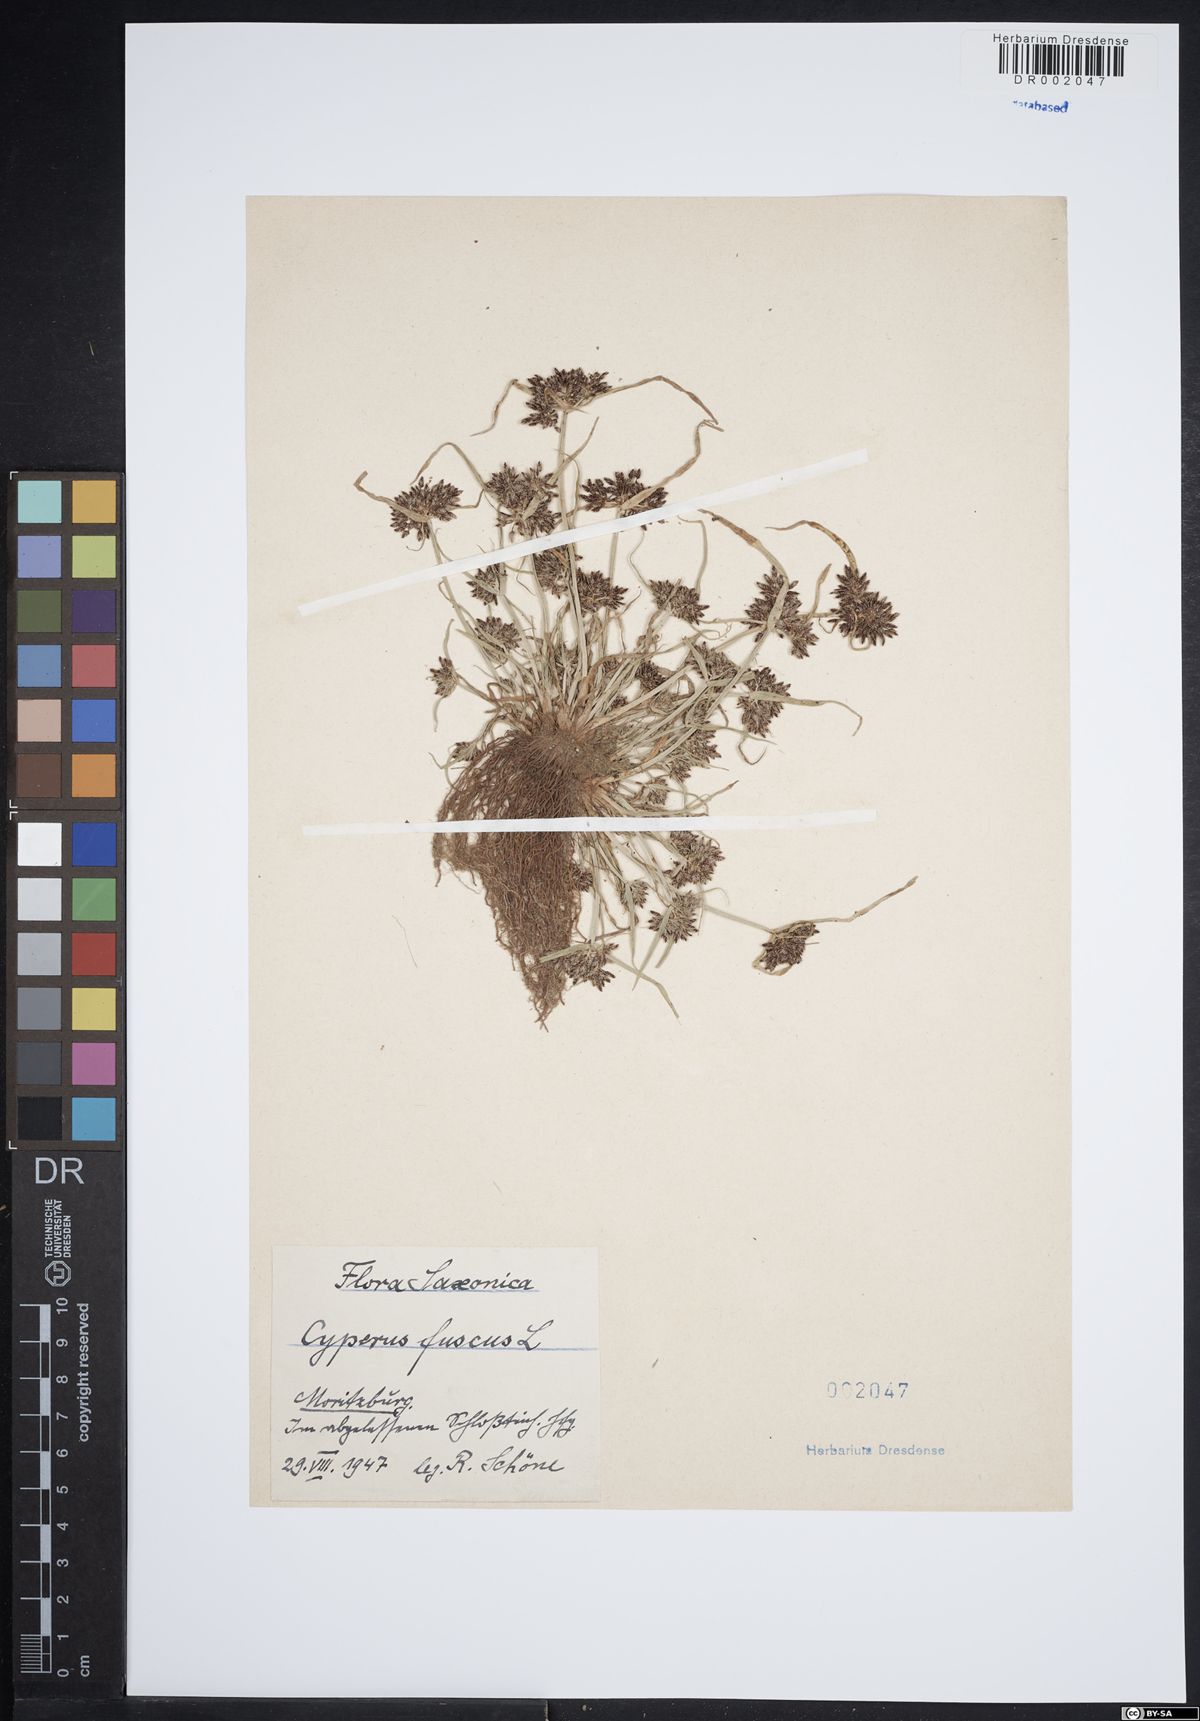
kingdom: Plantae
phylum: Tracheophyta
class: Liliopsida
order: Poales
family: Cyperaceae
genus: Cyperus
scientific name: Cyperus fuscus
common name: Brown galingale
